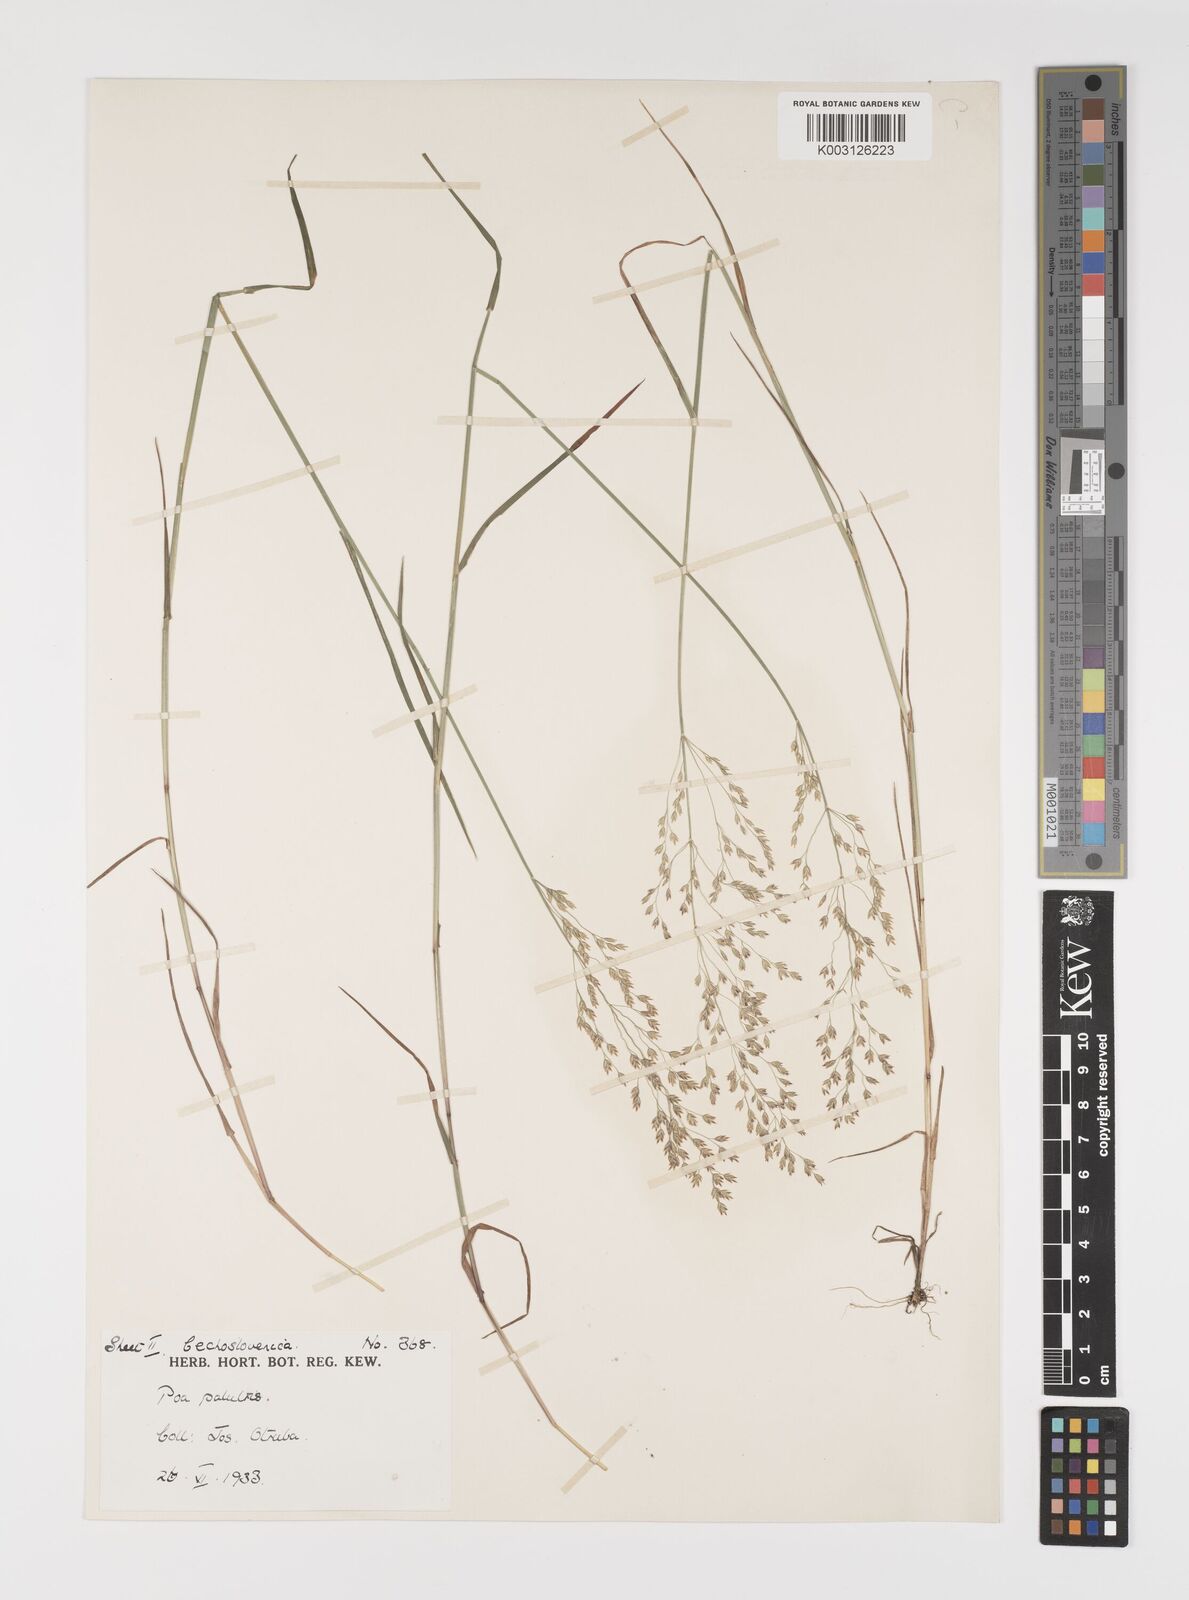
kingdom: Plantae
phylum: Tracheophyta
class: Liliopsida
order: Poales
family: Poaceae
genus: Poa
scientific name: Poa palustris
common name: Swamp meadow-grass
